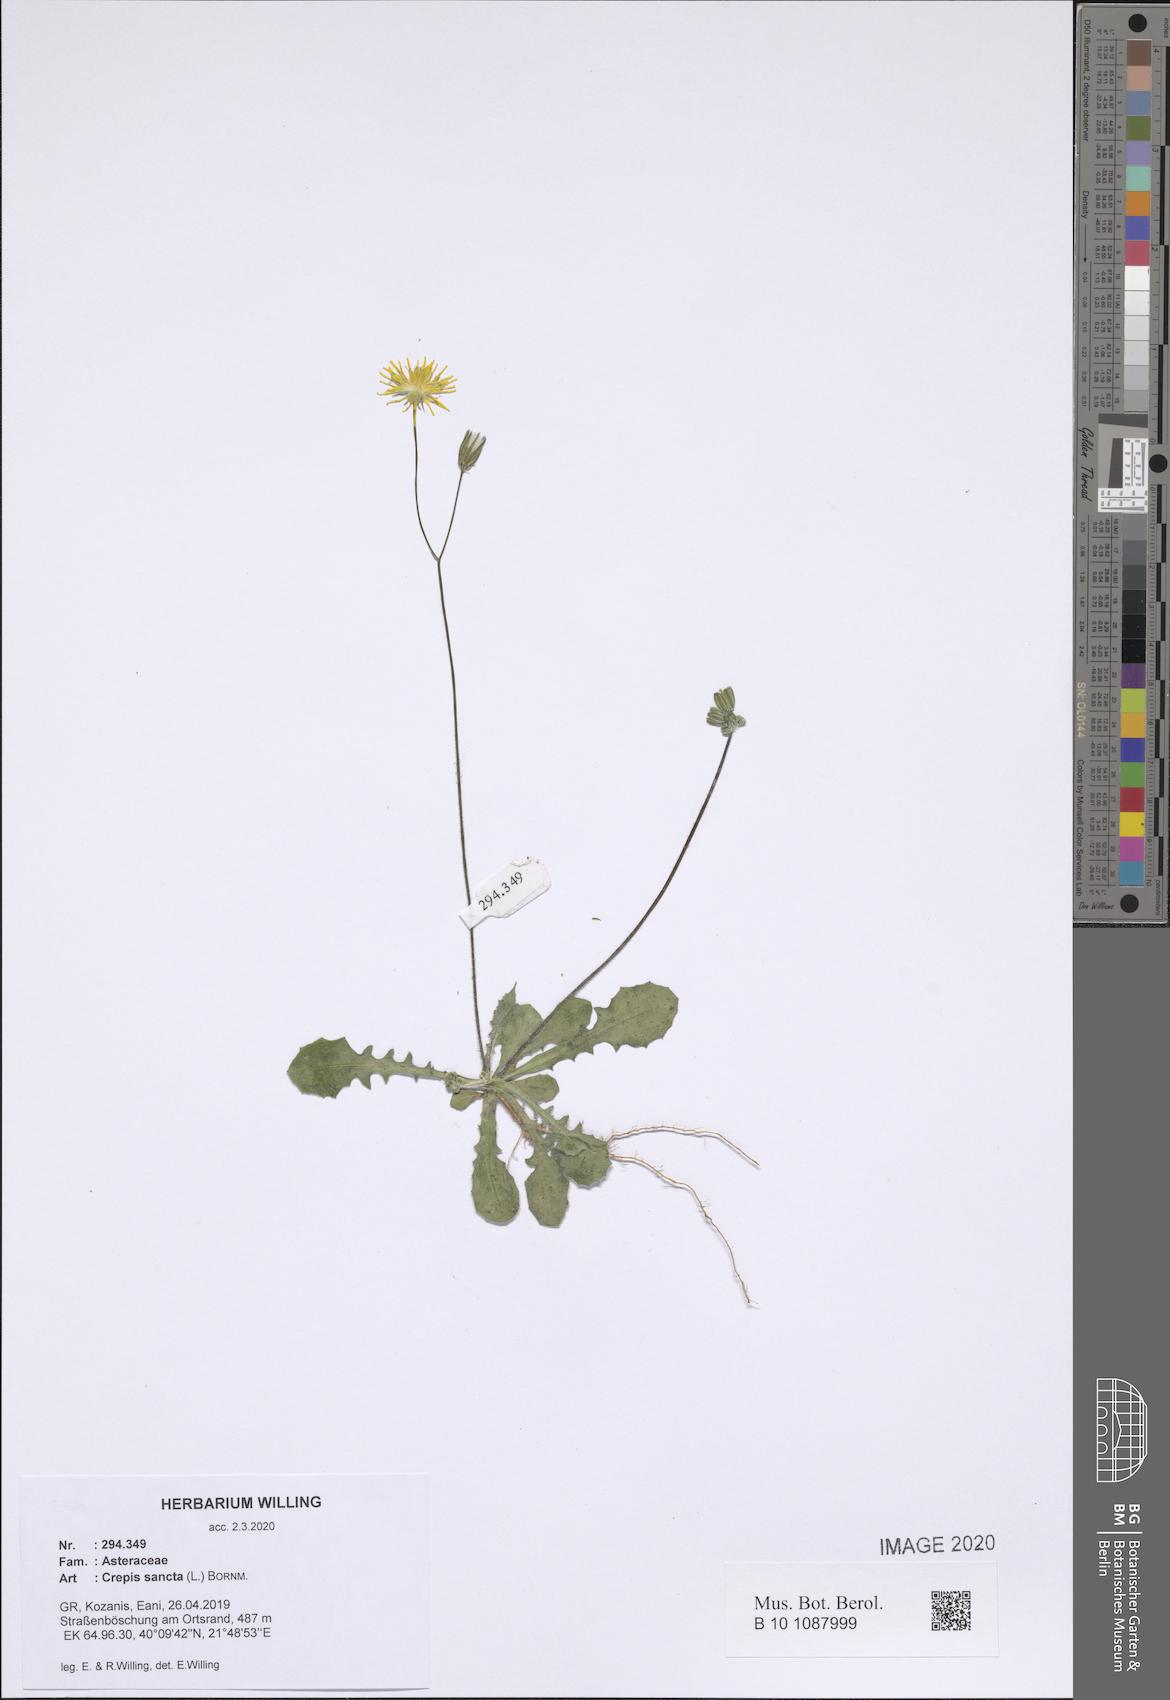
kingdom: Plantae
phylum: Tracheophyta
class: Magnoliopsida
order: Asterales
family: Asteraceae
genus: Crepis
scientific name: Crepis sancta
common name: Hawk's-beard
